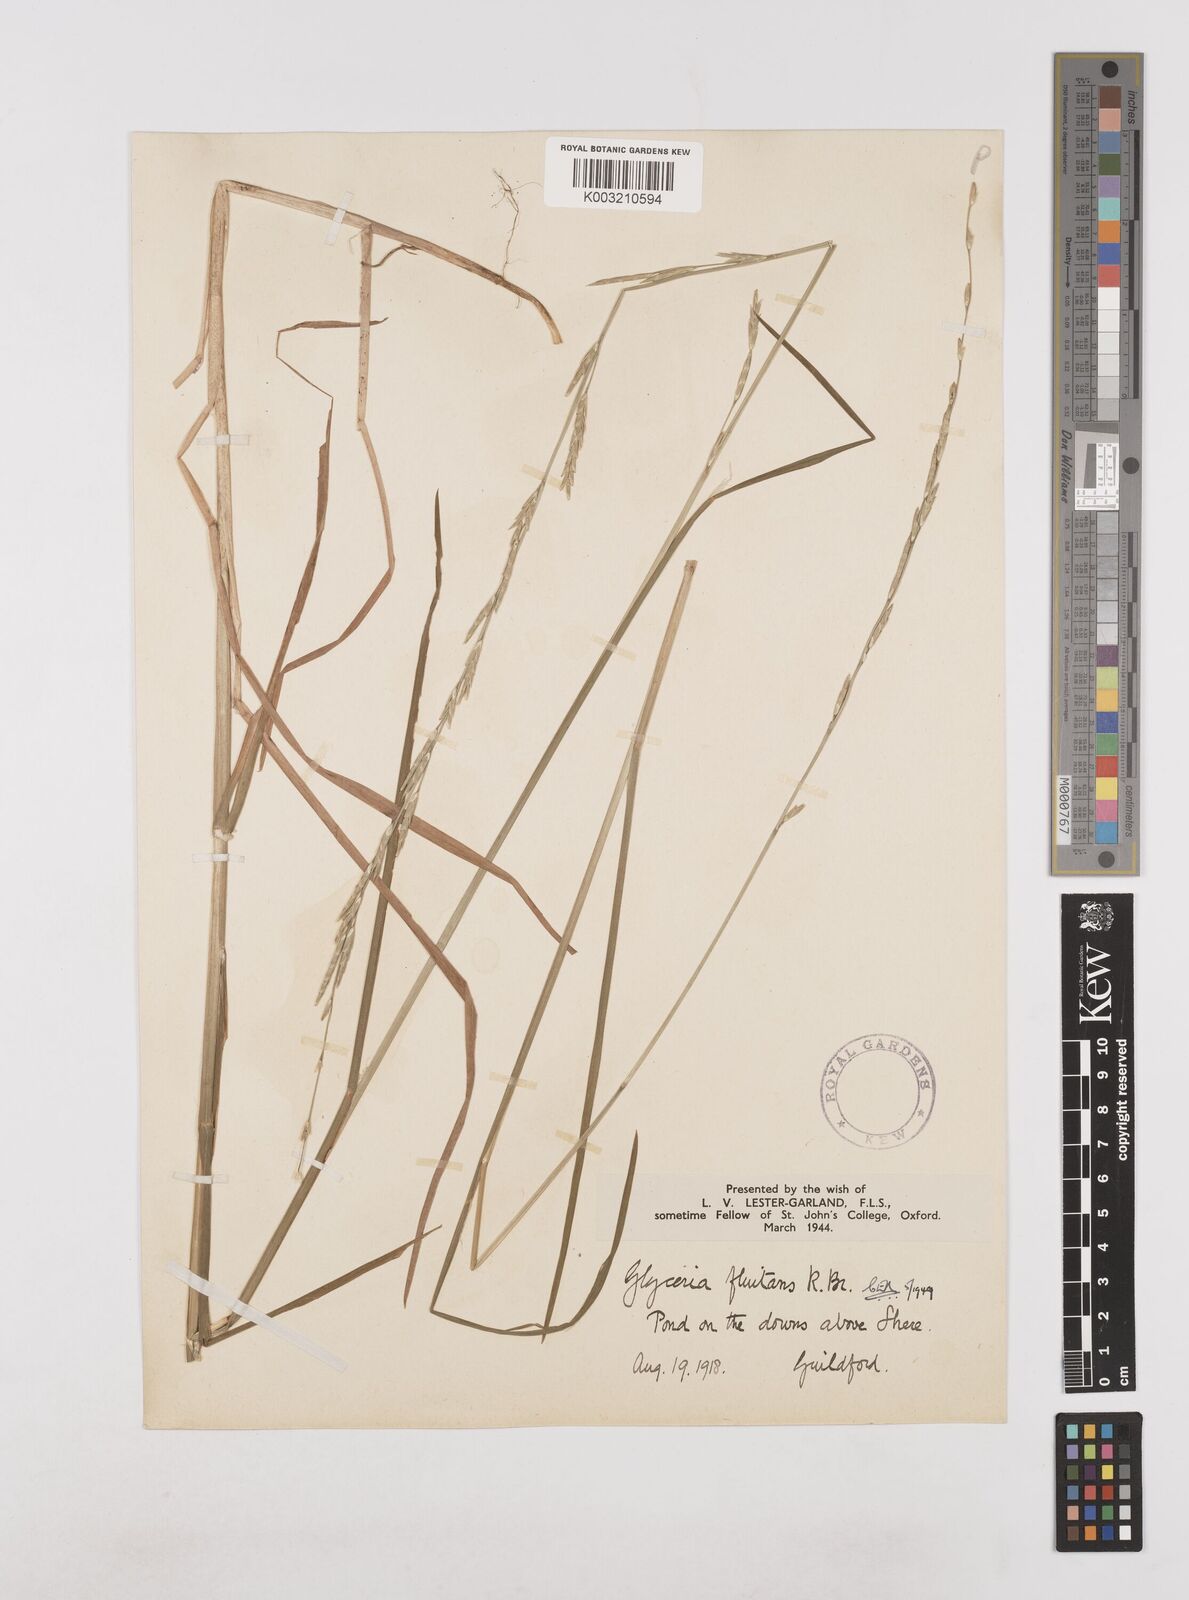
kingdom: Plantae
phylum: Tracheophyta
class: Liliopsida
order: Poales
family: Poaceae
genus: Glyceria
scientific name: Glyceria fluitans
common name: Floating sweet-grass
